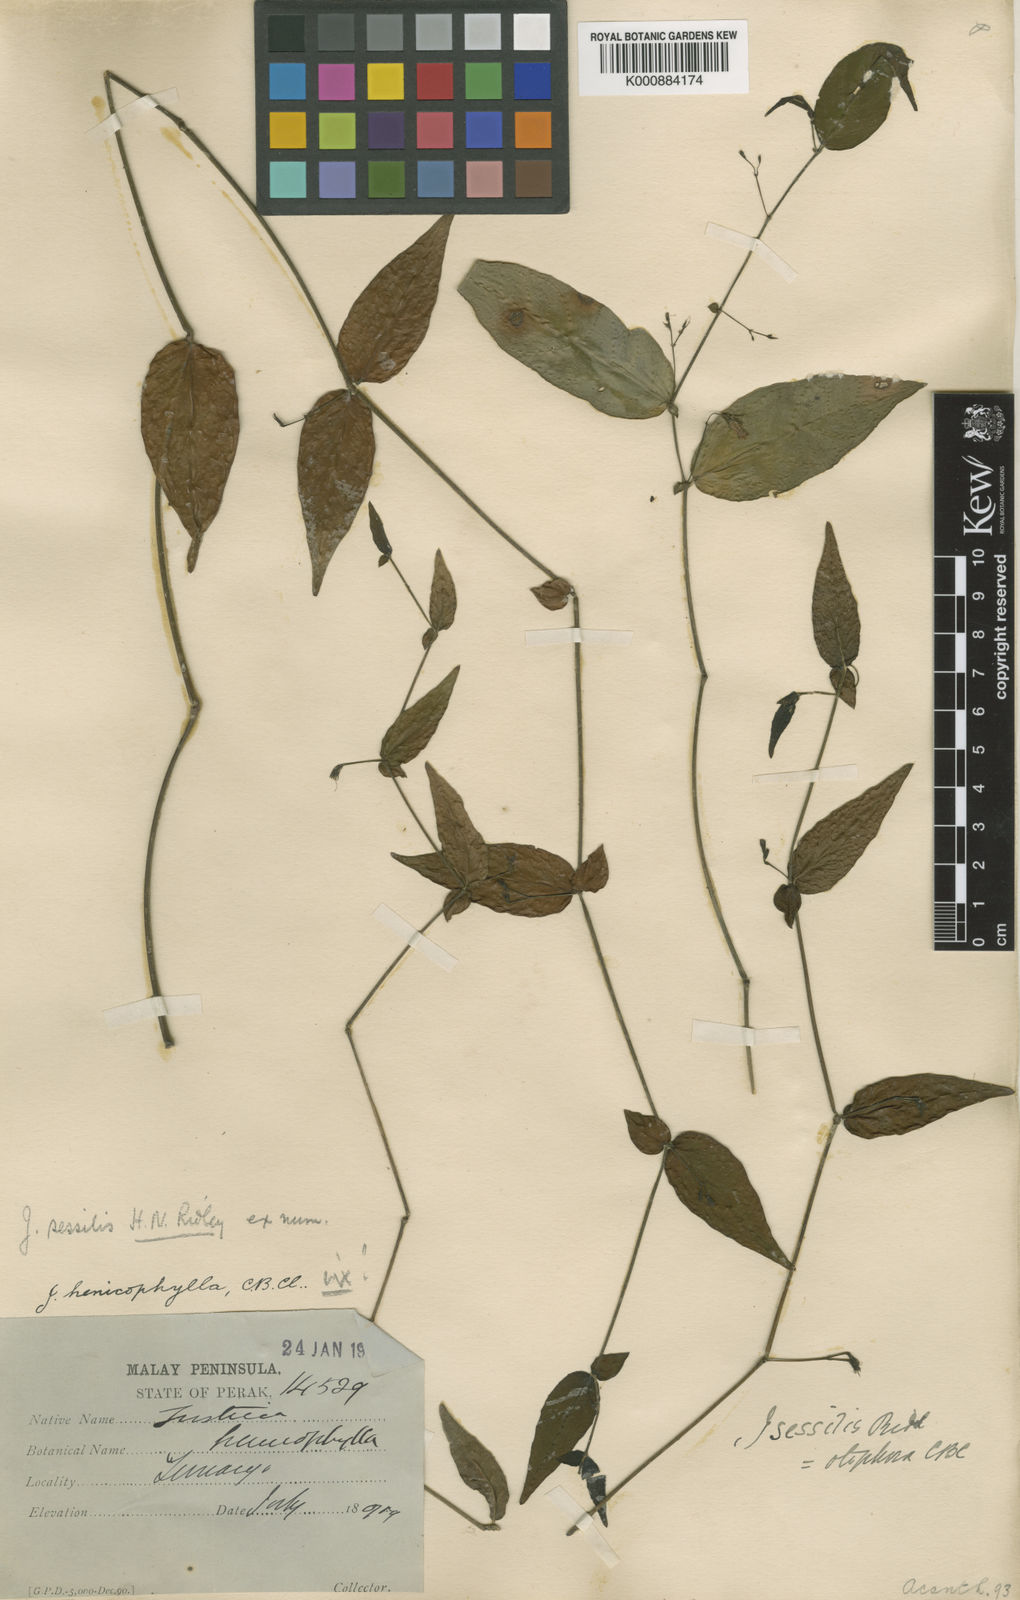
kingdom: Plantae
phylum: Tracheophyta
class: Magnoliopsida
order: Lamiales
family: Acanthaceae
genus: Justicia
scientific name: Justicia otophora
